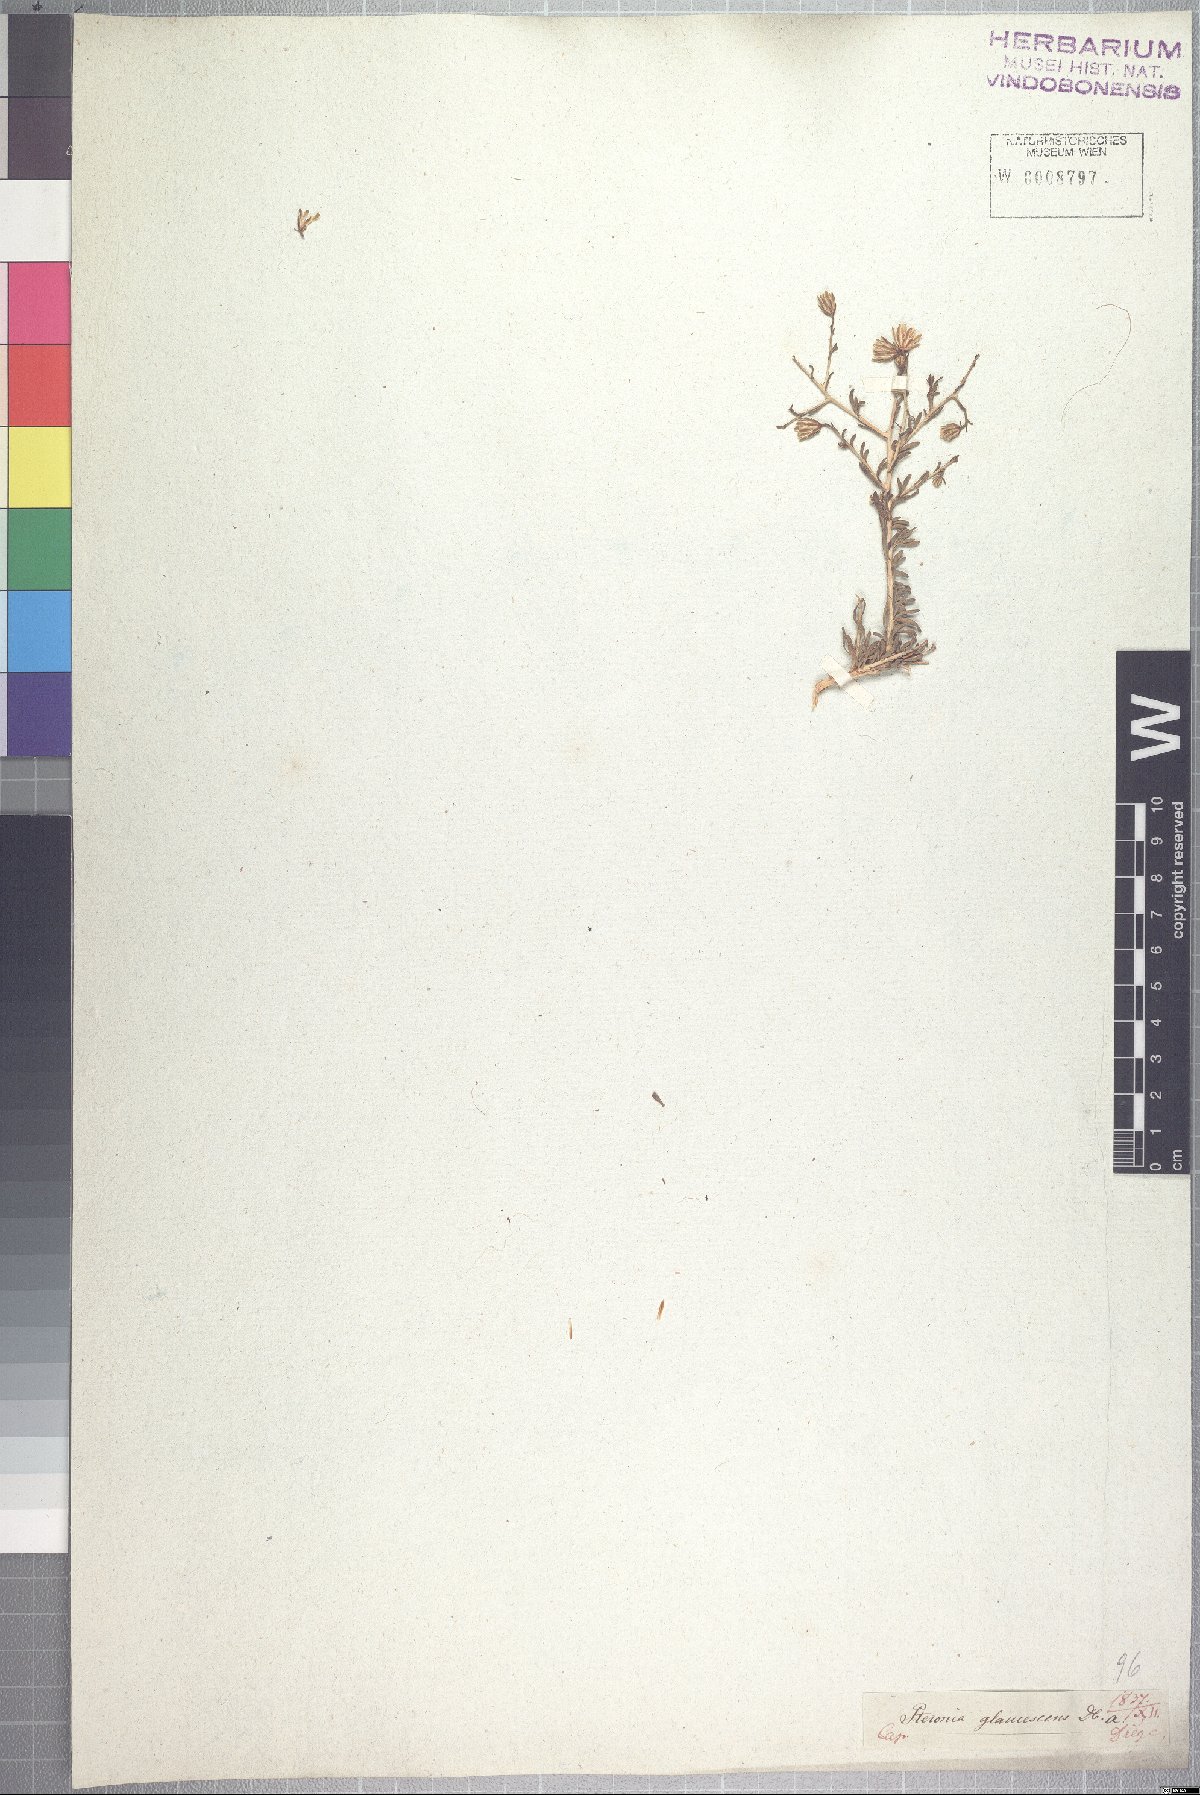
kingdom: Plantae
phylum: Tracheophyta
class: Magnoliopsida
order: Asterales
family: Asteraceae
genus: Pteronia
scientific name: Pteronia glaucescens
